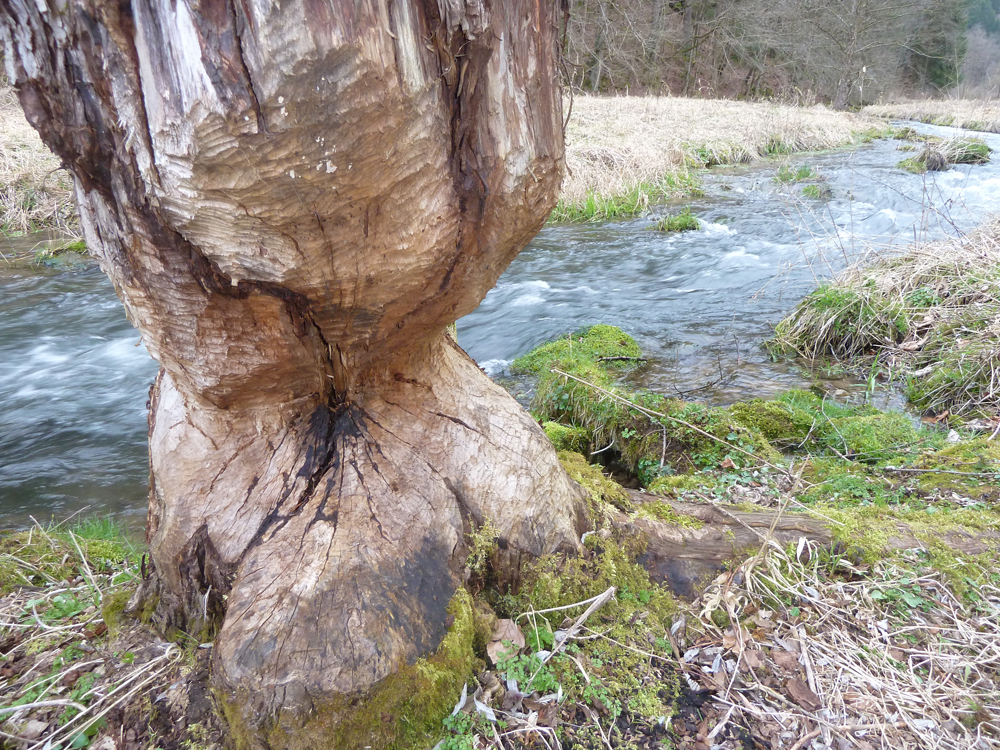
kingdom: Animalia
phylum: Chordata
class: Mammalia
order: Rodentia
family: Castoridae
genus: Castor
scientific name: Castor fiber
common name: Eurasian beaver
